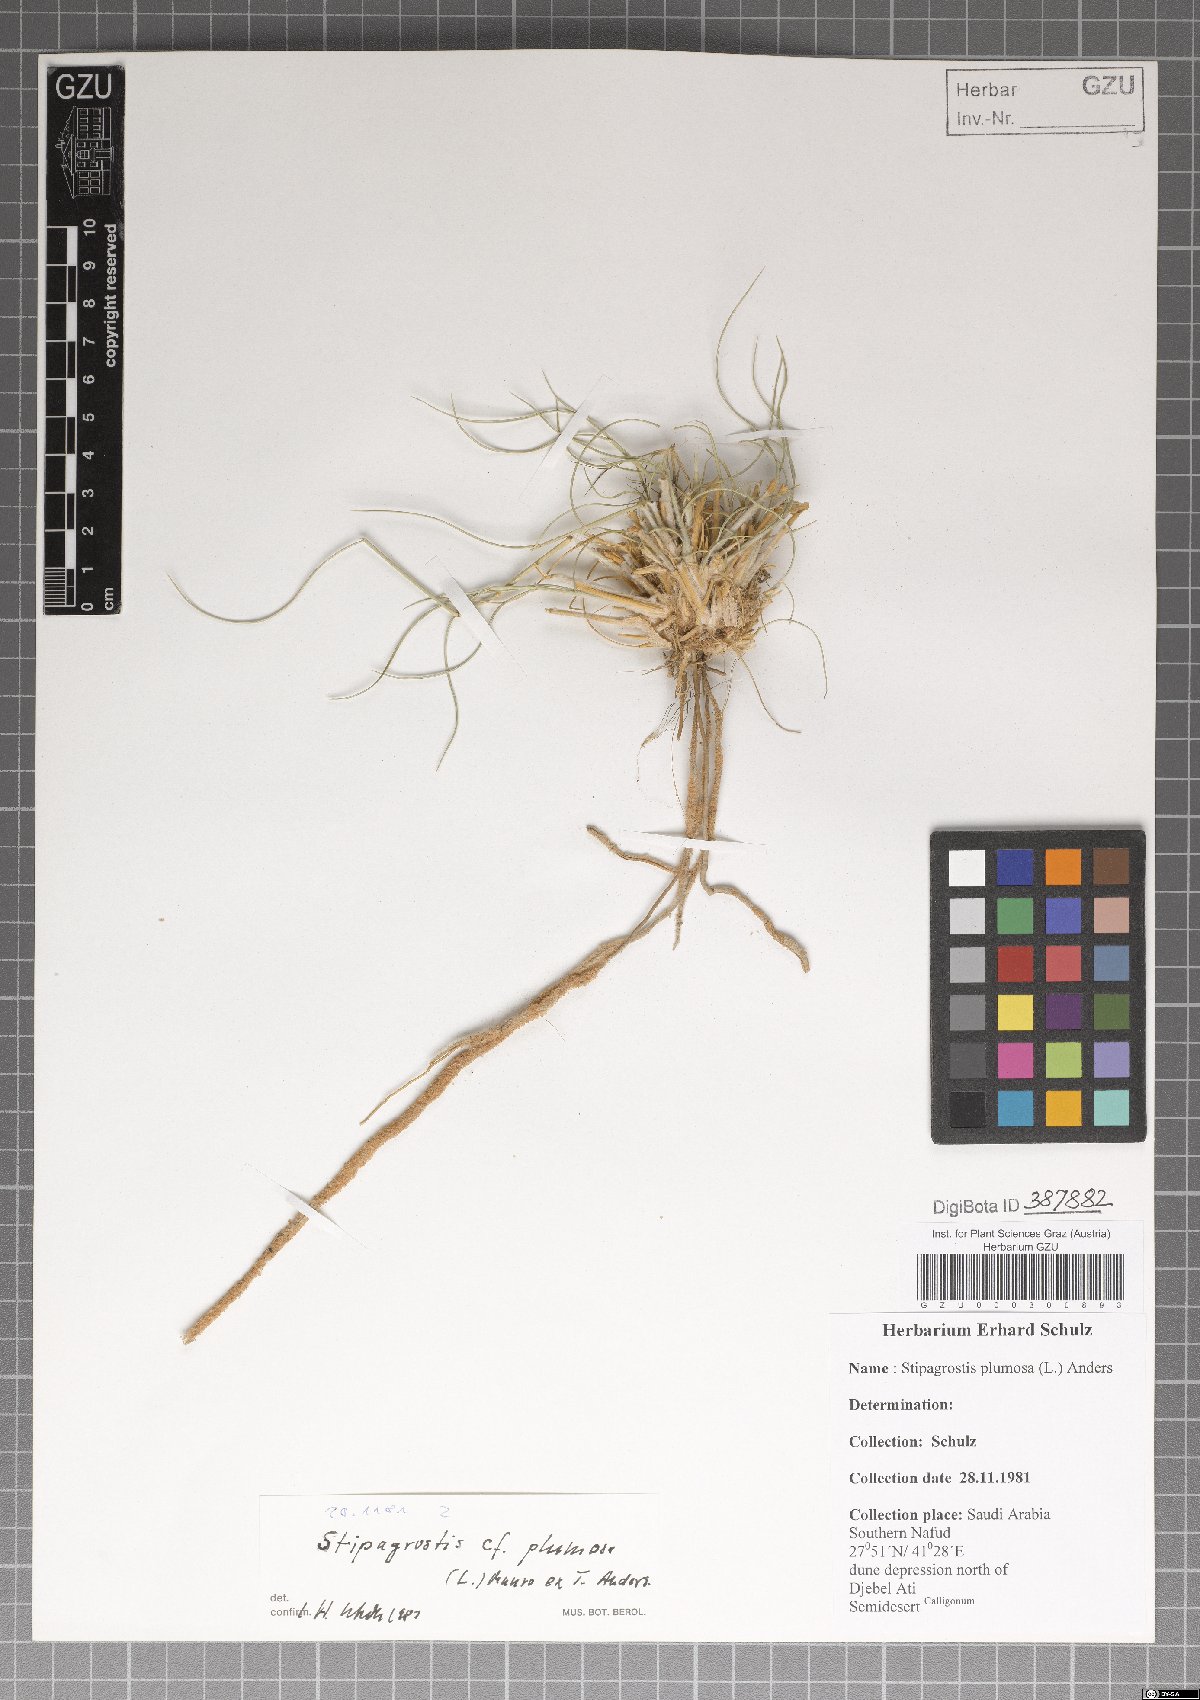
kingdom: Plantae
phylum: Tracheophyta
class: Liliopsida
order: Poales
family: Poaceae
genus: Stipagrostis
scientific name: Stipagrostis plumosa
